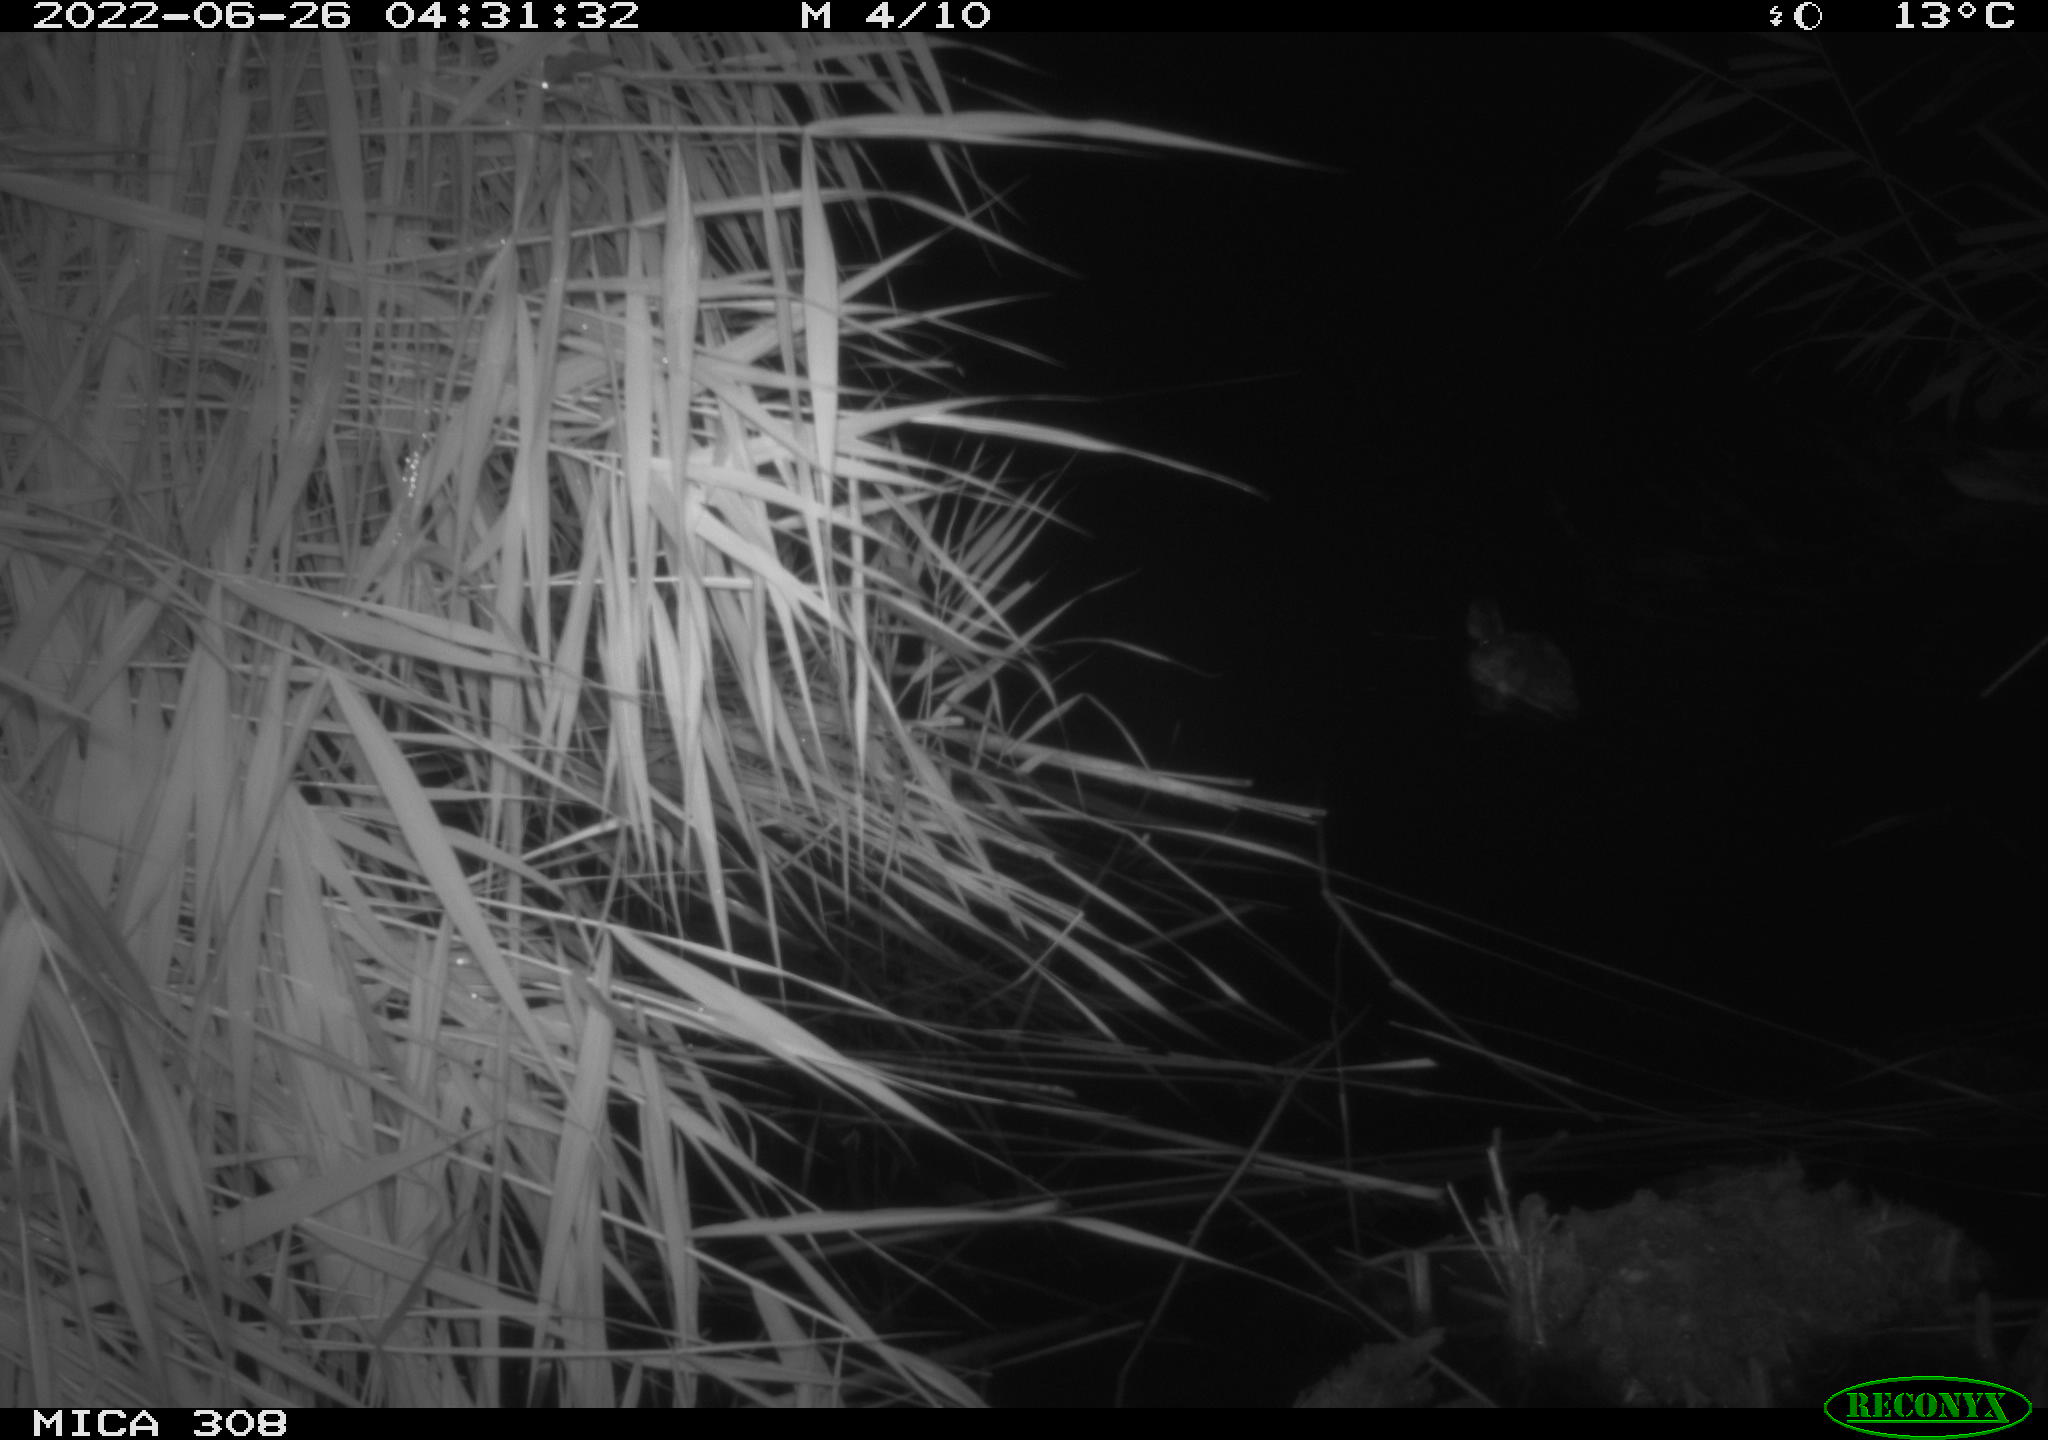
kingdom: Animalia
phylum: Chordata
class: Aves
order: Anseriformes
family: Anatidae
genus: Anas
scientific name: Anas platyrhynchos
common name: Mallard
